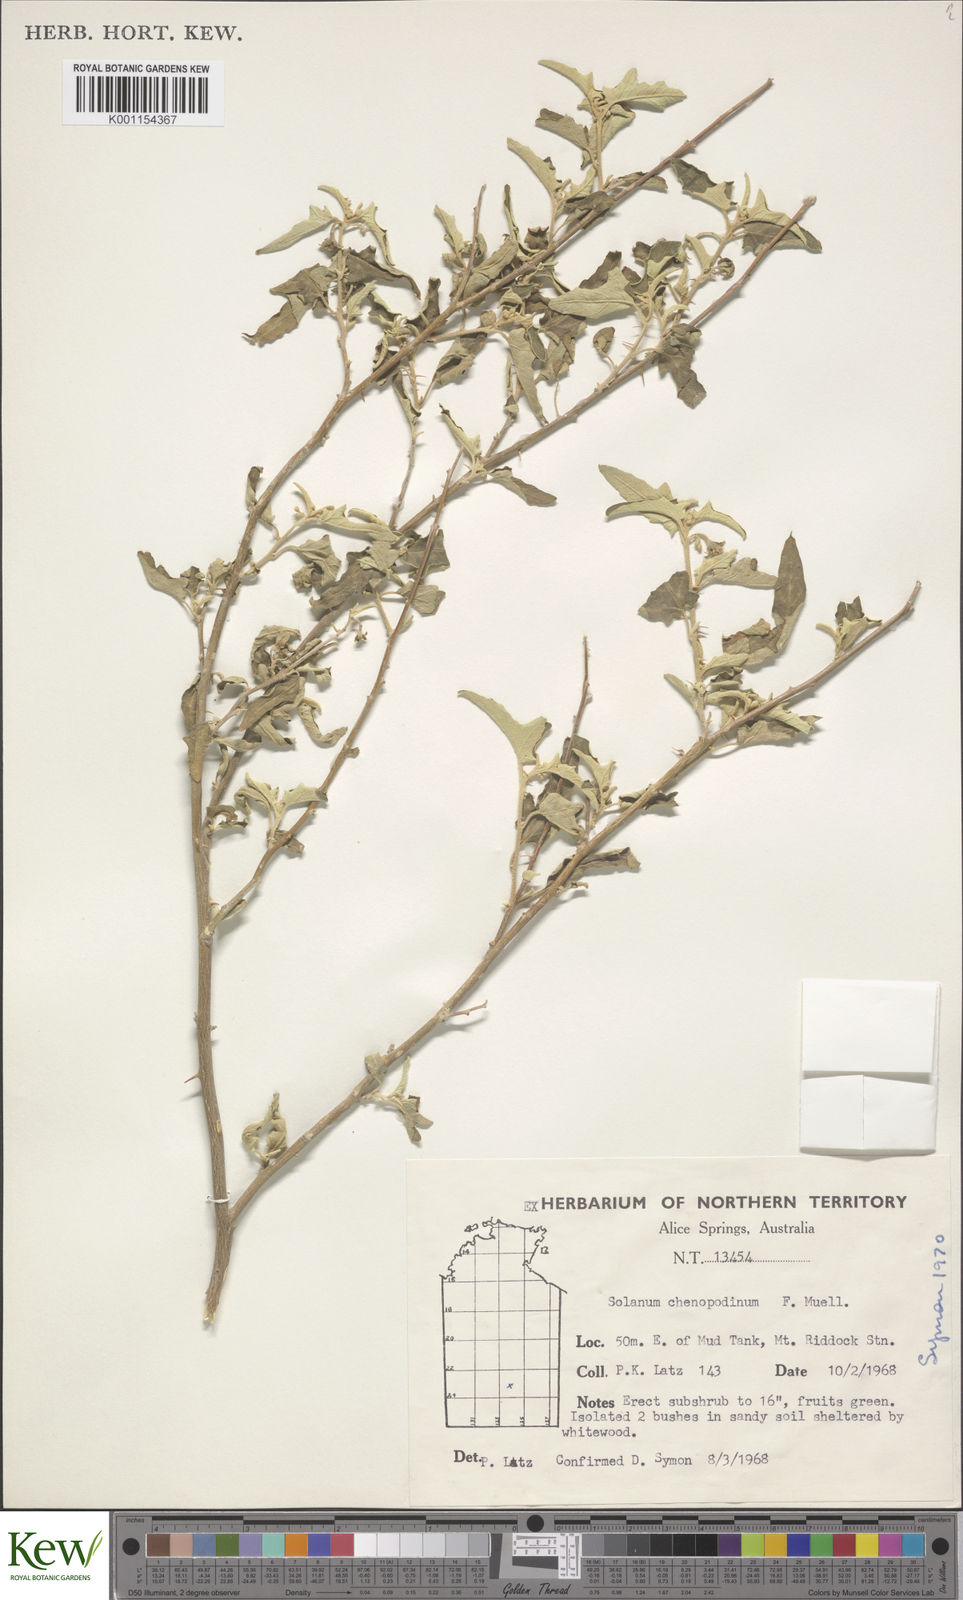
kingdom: Plantae
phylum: Tracheophyta
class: Magnoliopsida
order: Solanales
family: Solanaceae
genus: Solanum
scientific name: Solanum chenopodinum
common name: Goosefoot potato-bush
